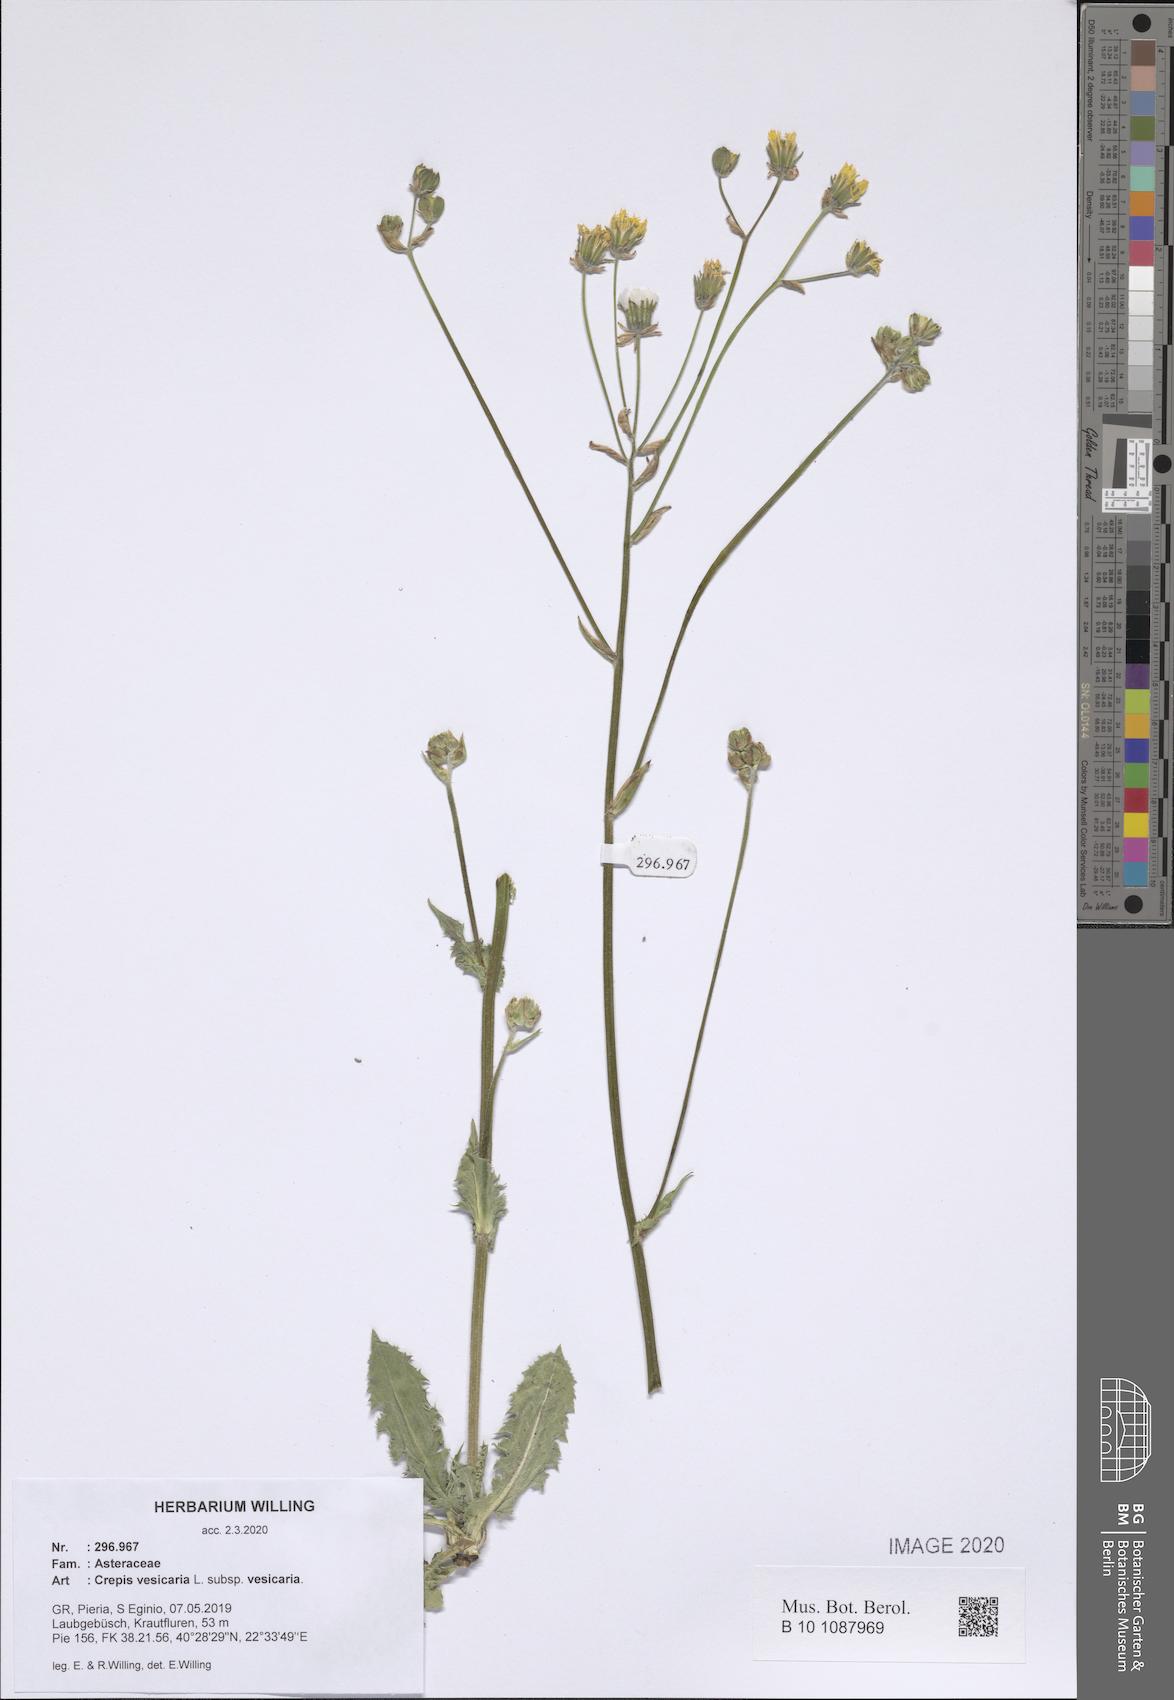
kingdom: Plantae
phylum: Tracheophyta
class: Magnoliopsida
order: Asterales
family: Asteraceae
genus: Crepis
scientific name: Crepis vesicaria
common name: Beaked hawksbeard
